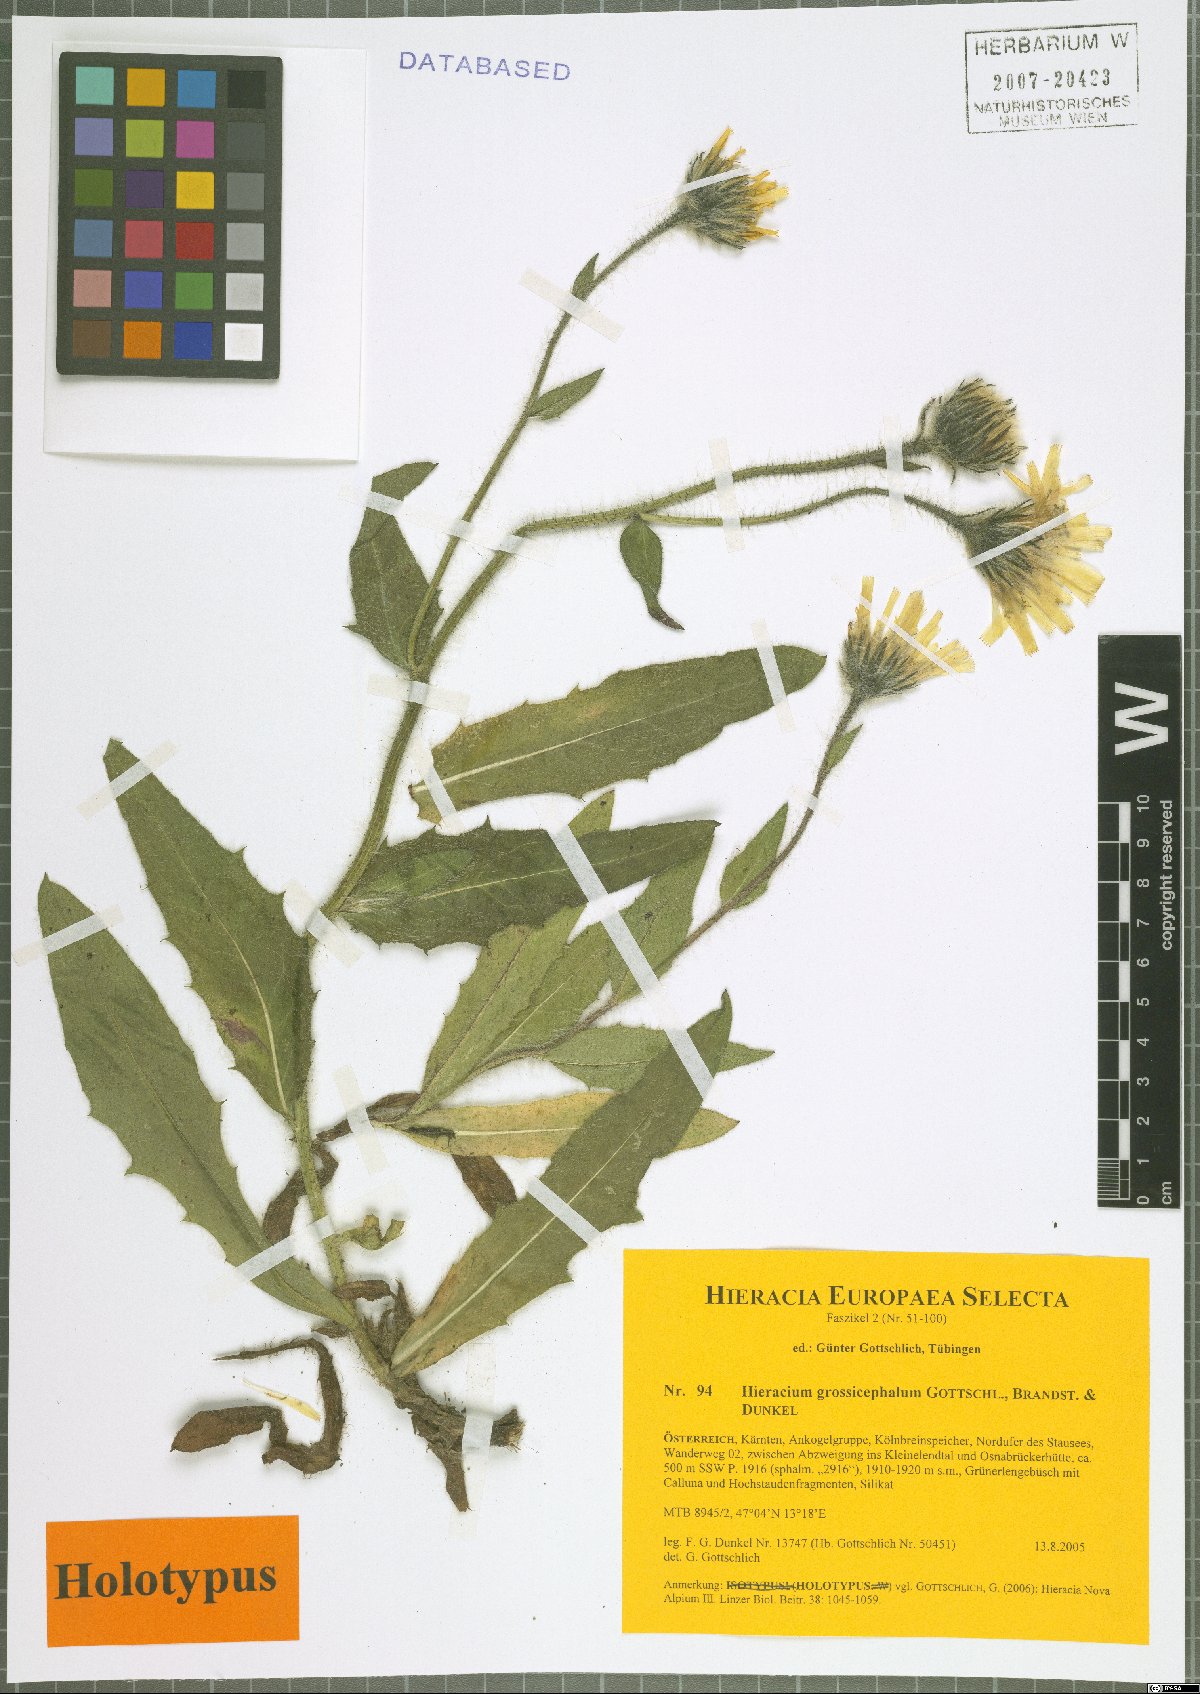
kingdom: Plantae
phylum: Tracheophyta
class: Magnoliopsida
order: Asterales
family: Asteraceae
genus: Hieracium
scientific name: Hieracium grossicephalum
